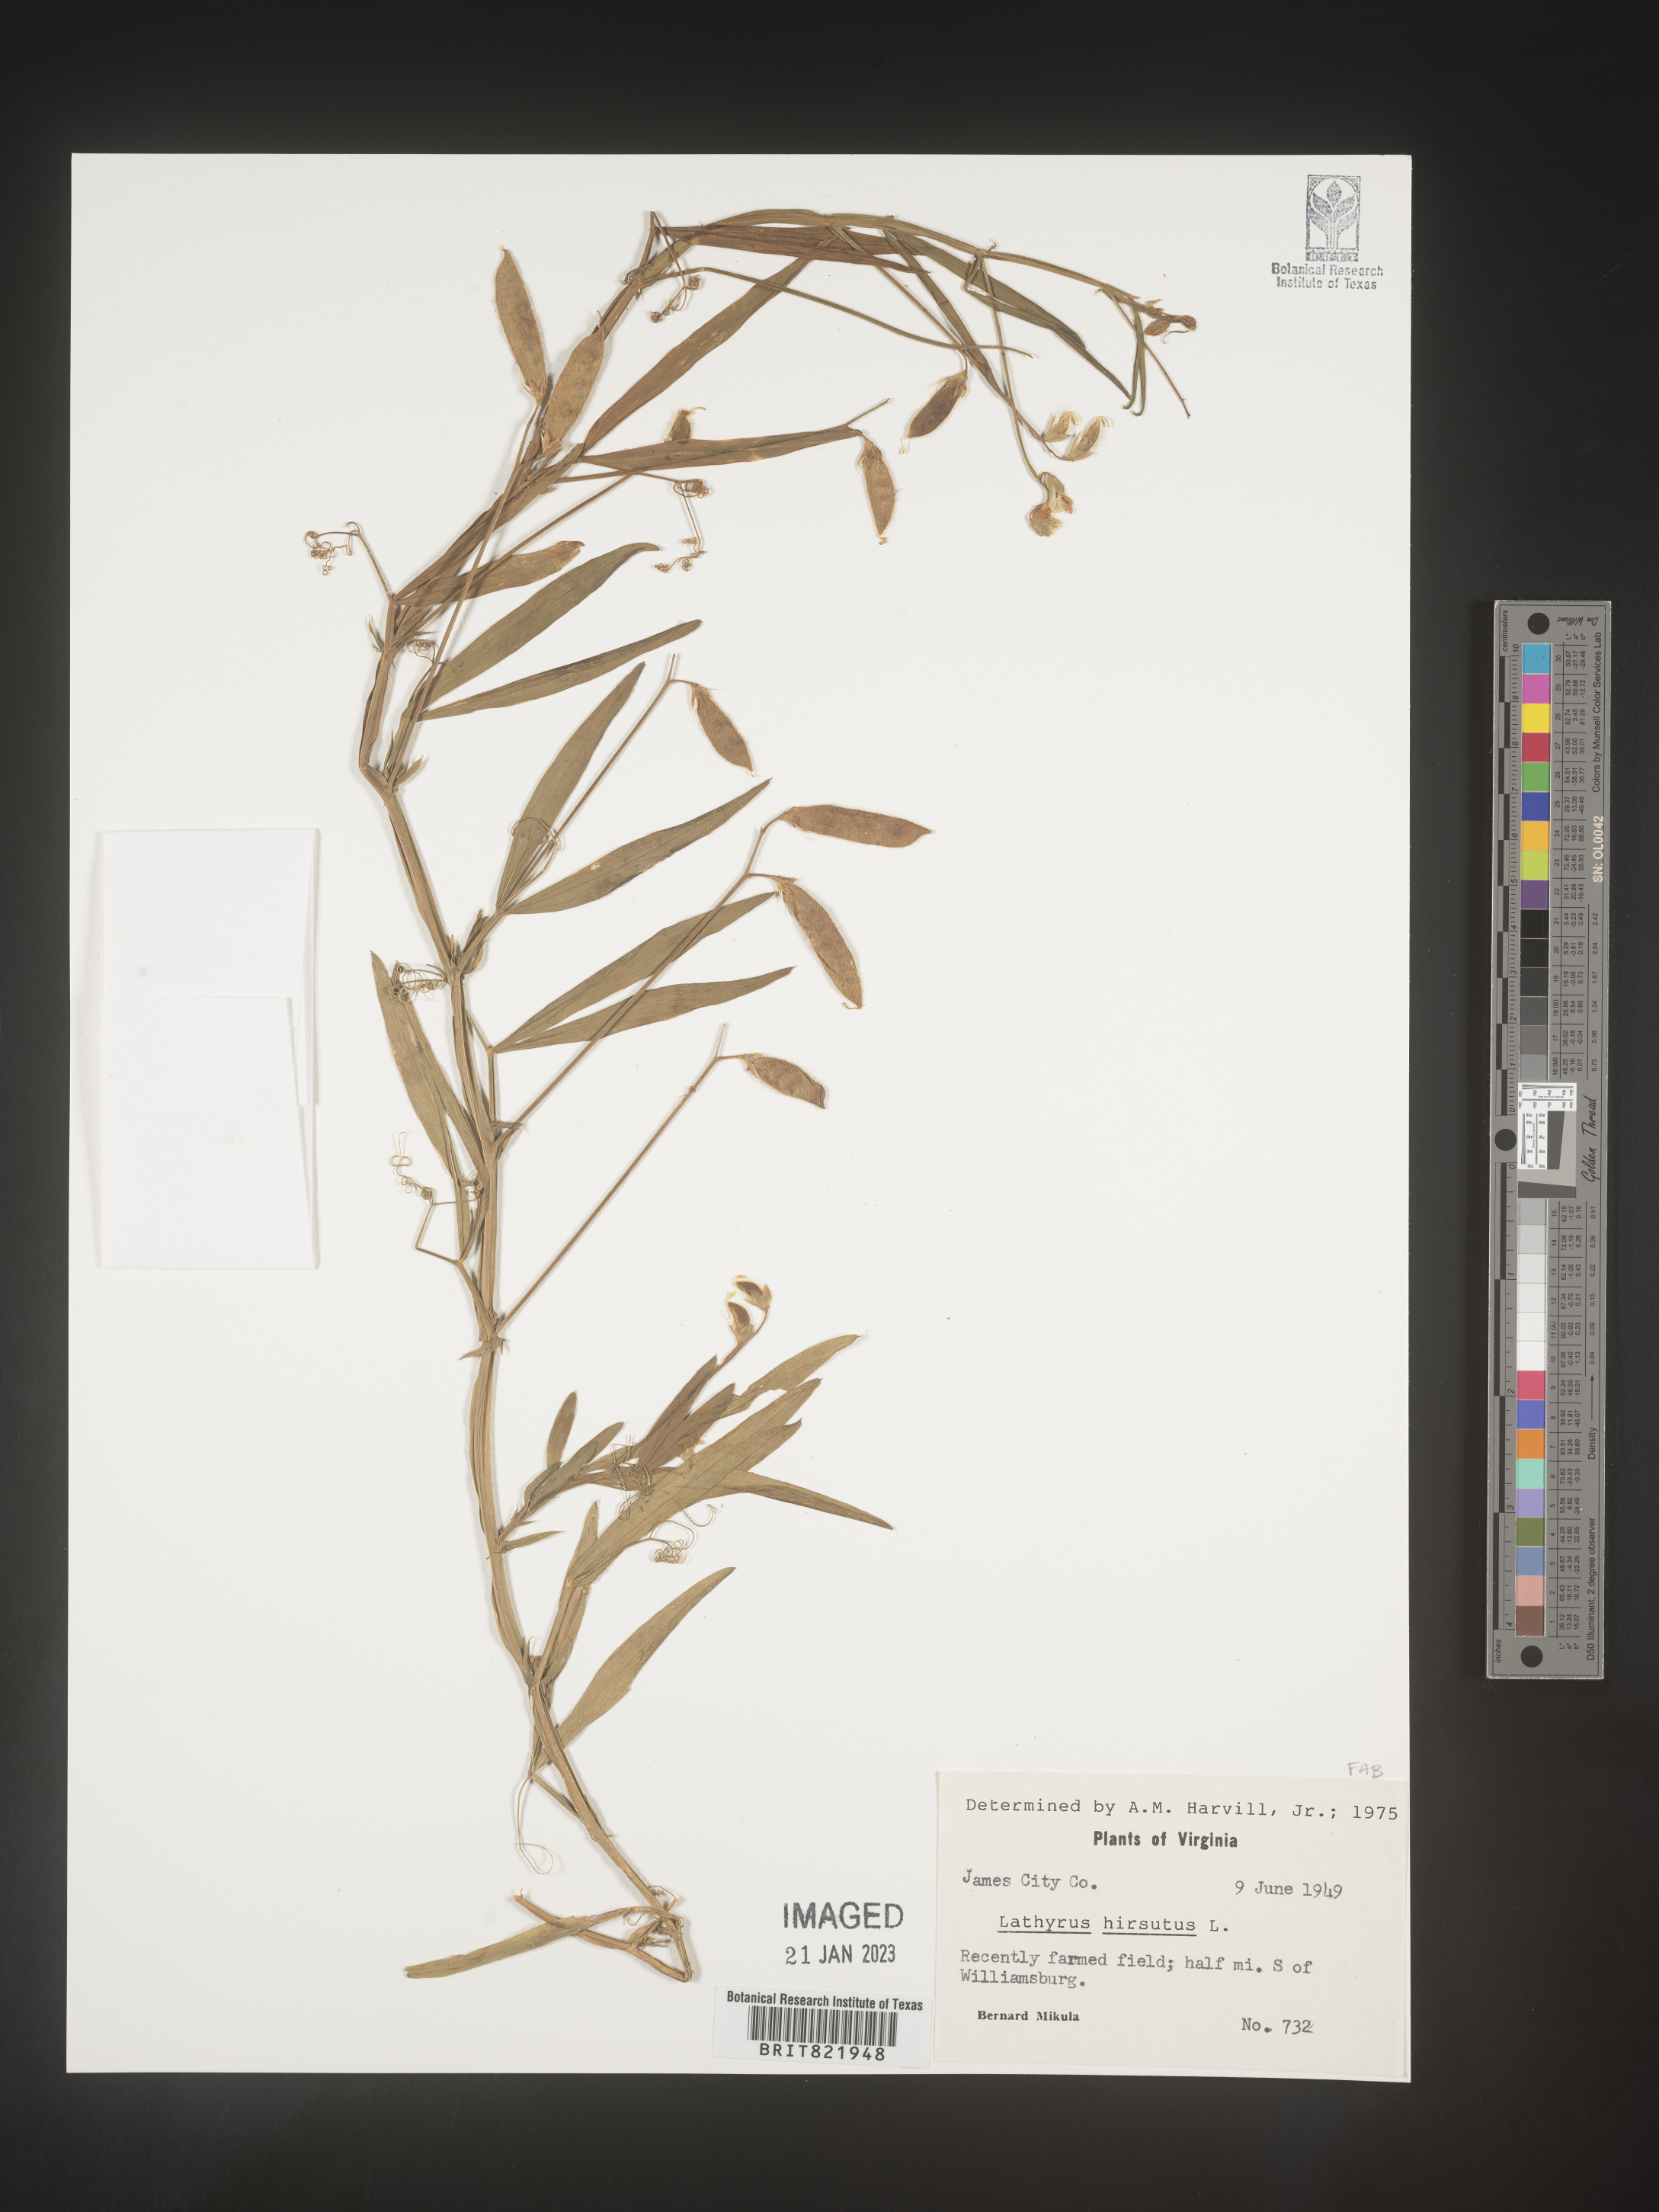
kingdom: Plantae
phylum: Tracheophyta
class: Magnoliopsida
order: Fabales
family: Fabaceae
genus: Lathyrus
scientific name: Lathyrus hirsutus
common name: Hairy vetchling
